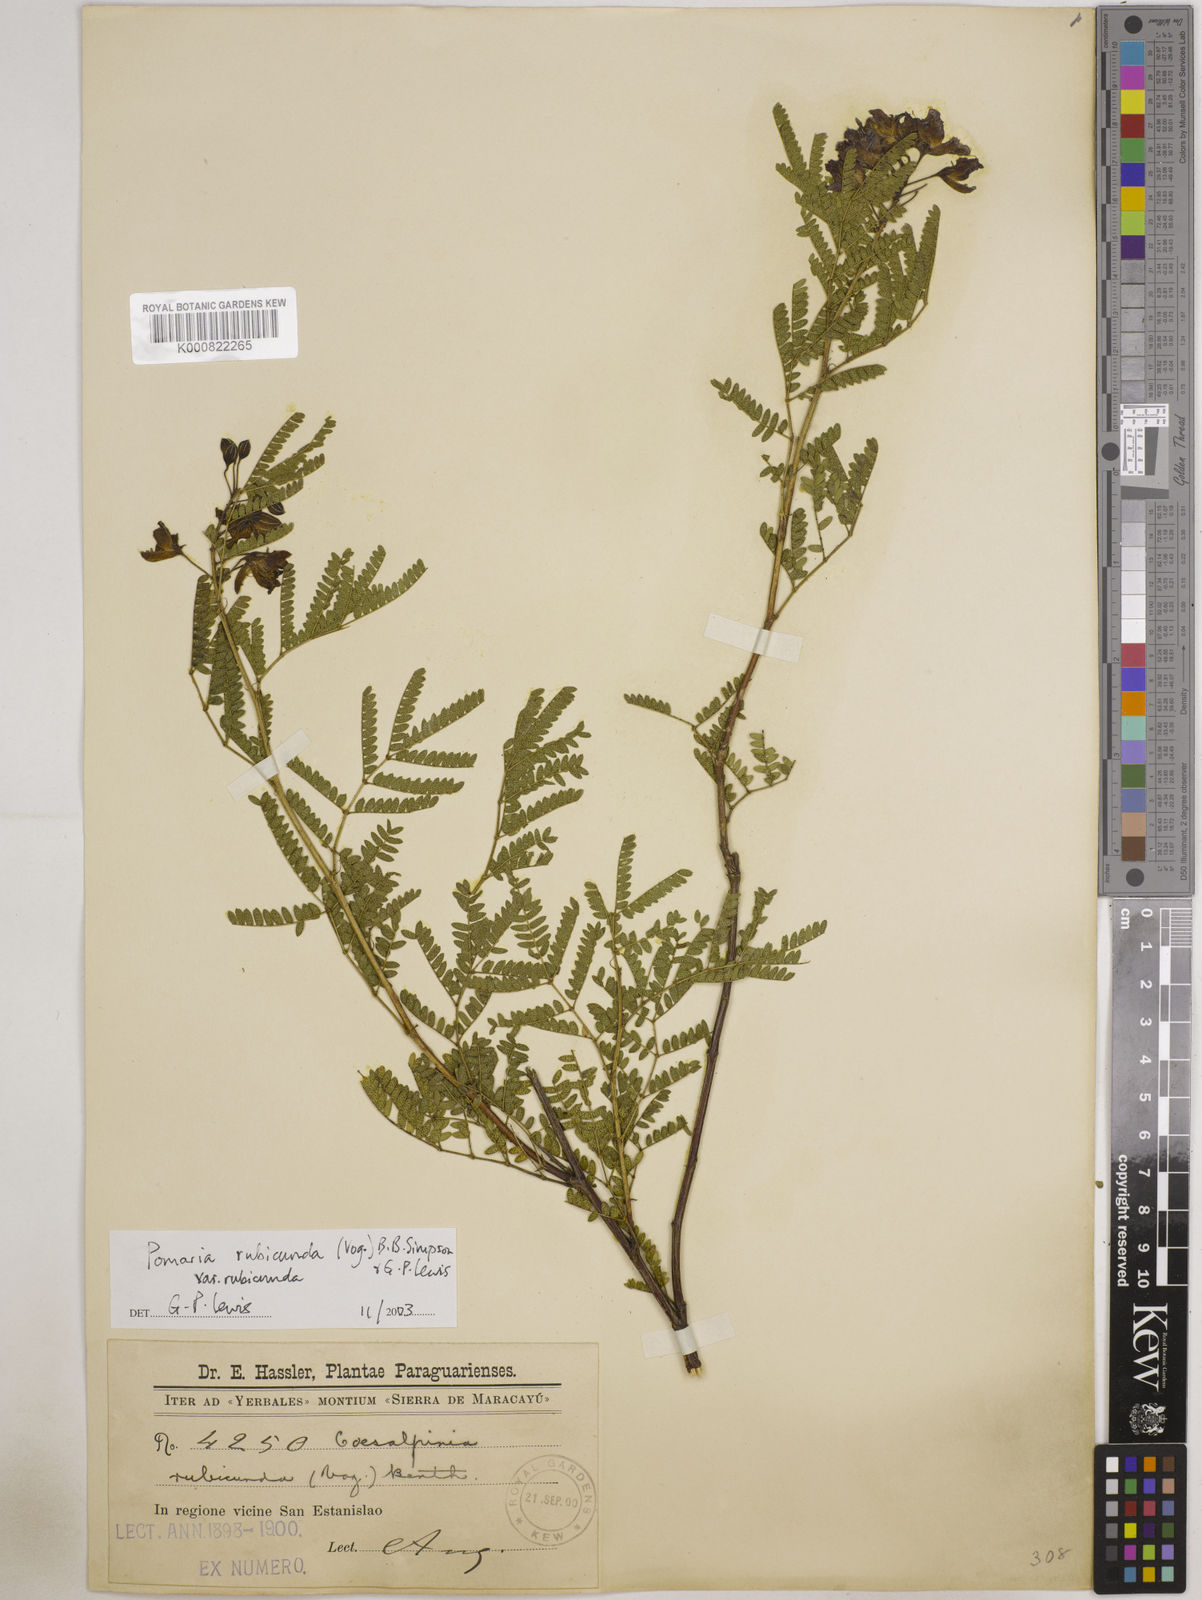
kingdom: Plantae
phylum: Tracheophyta
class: Magnoliopsida
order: Fabales
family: Fabaceae
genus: Pomaria
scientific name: Pomaria rubicunda
